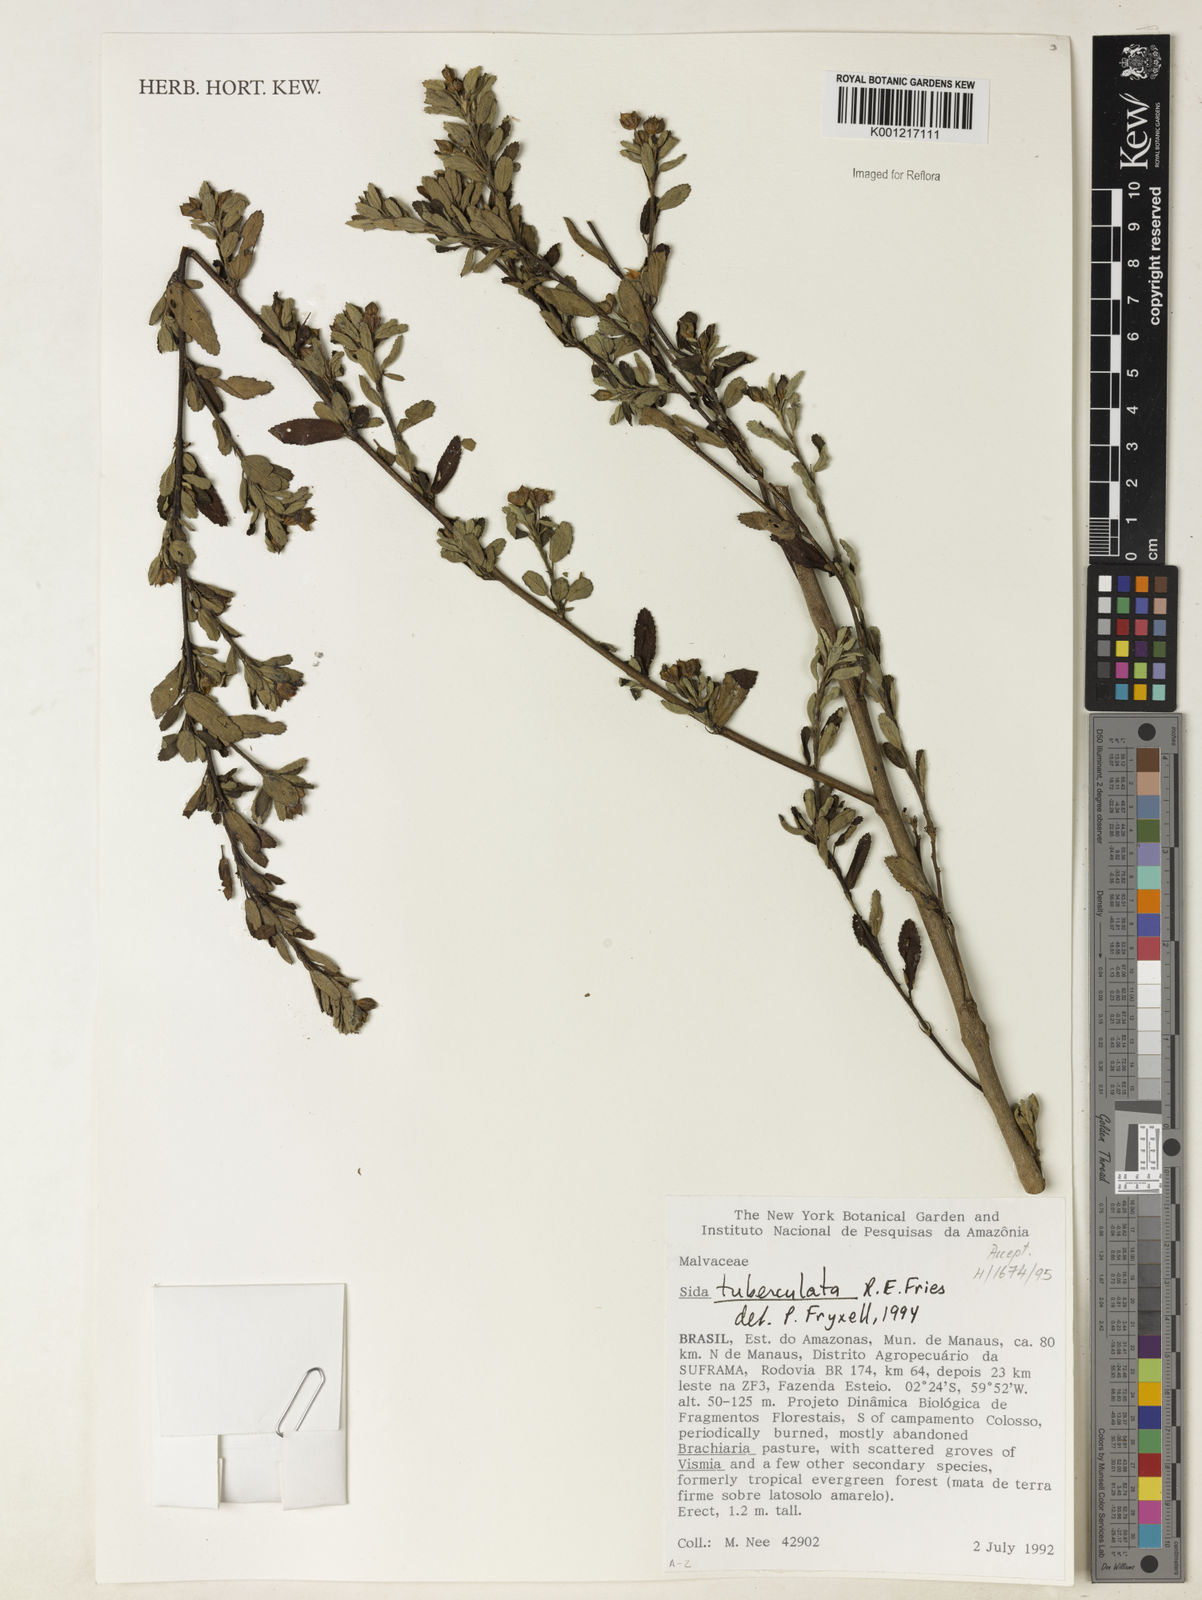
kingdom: Plantae
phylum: Tracheophyta
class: Magnoliopsida
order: Malvales
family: Malvaceae
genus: Sida
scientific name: Sida tuberculata
